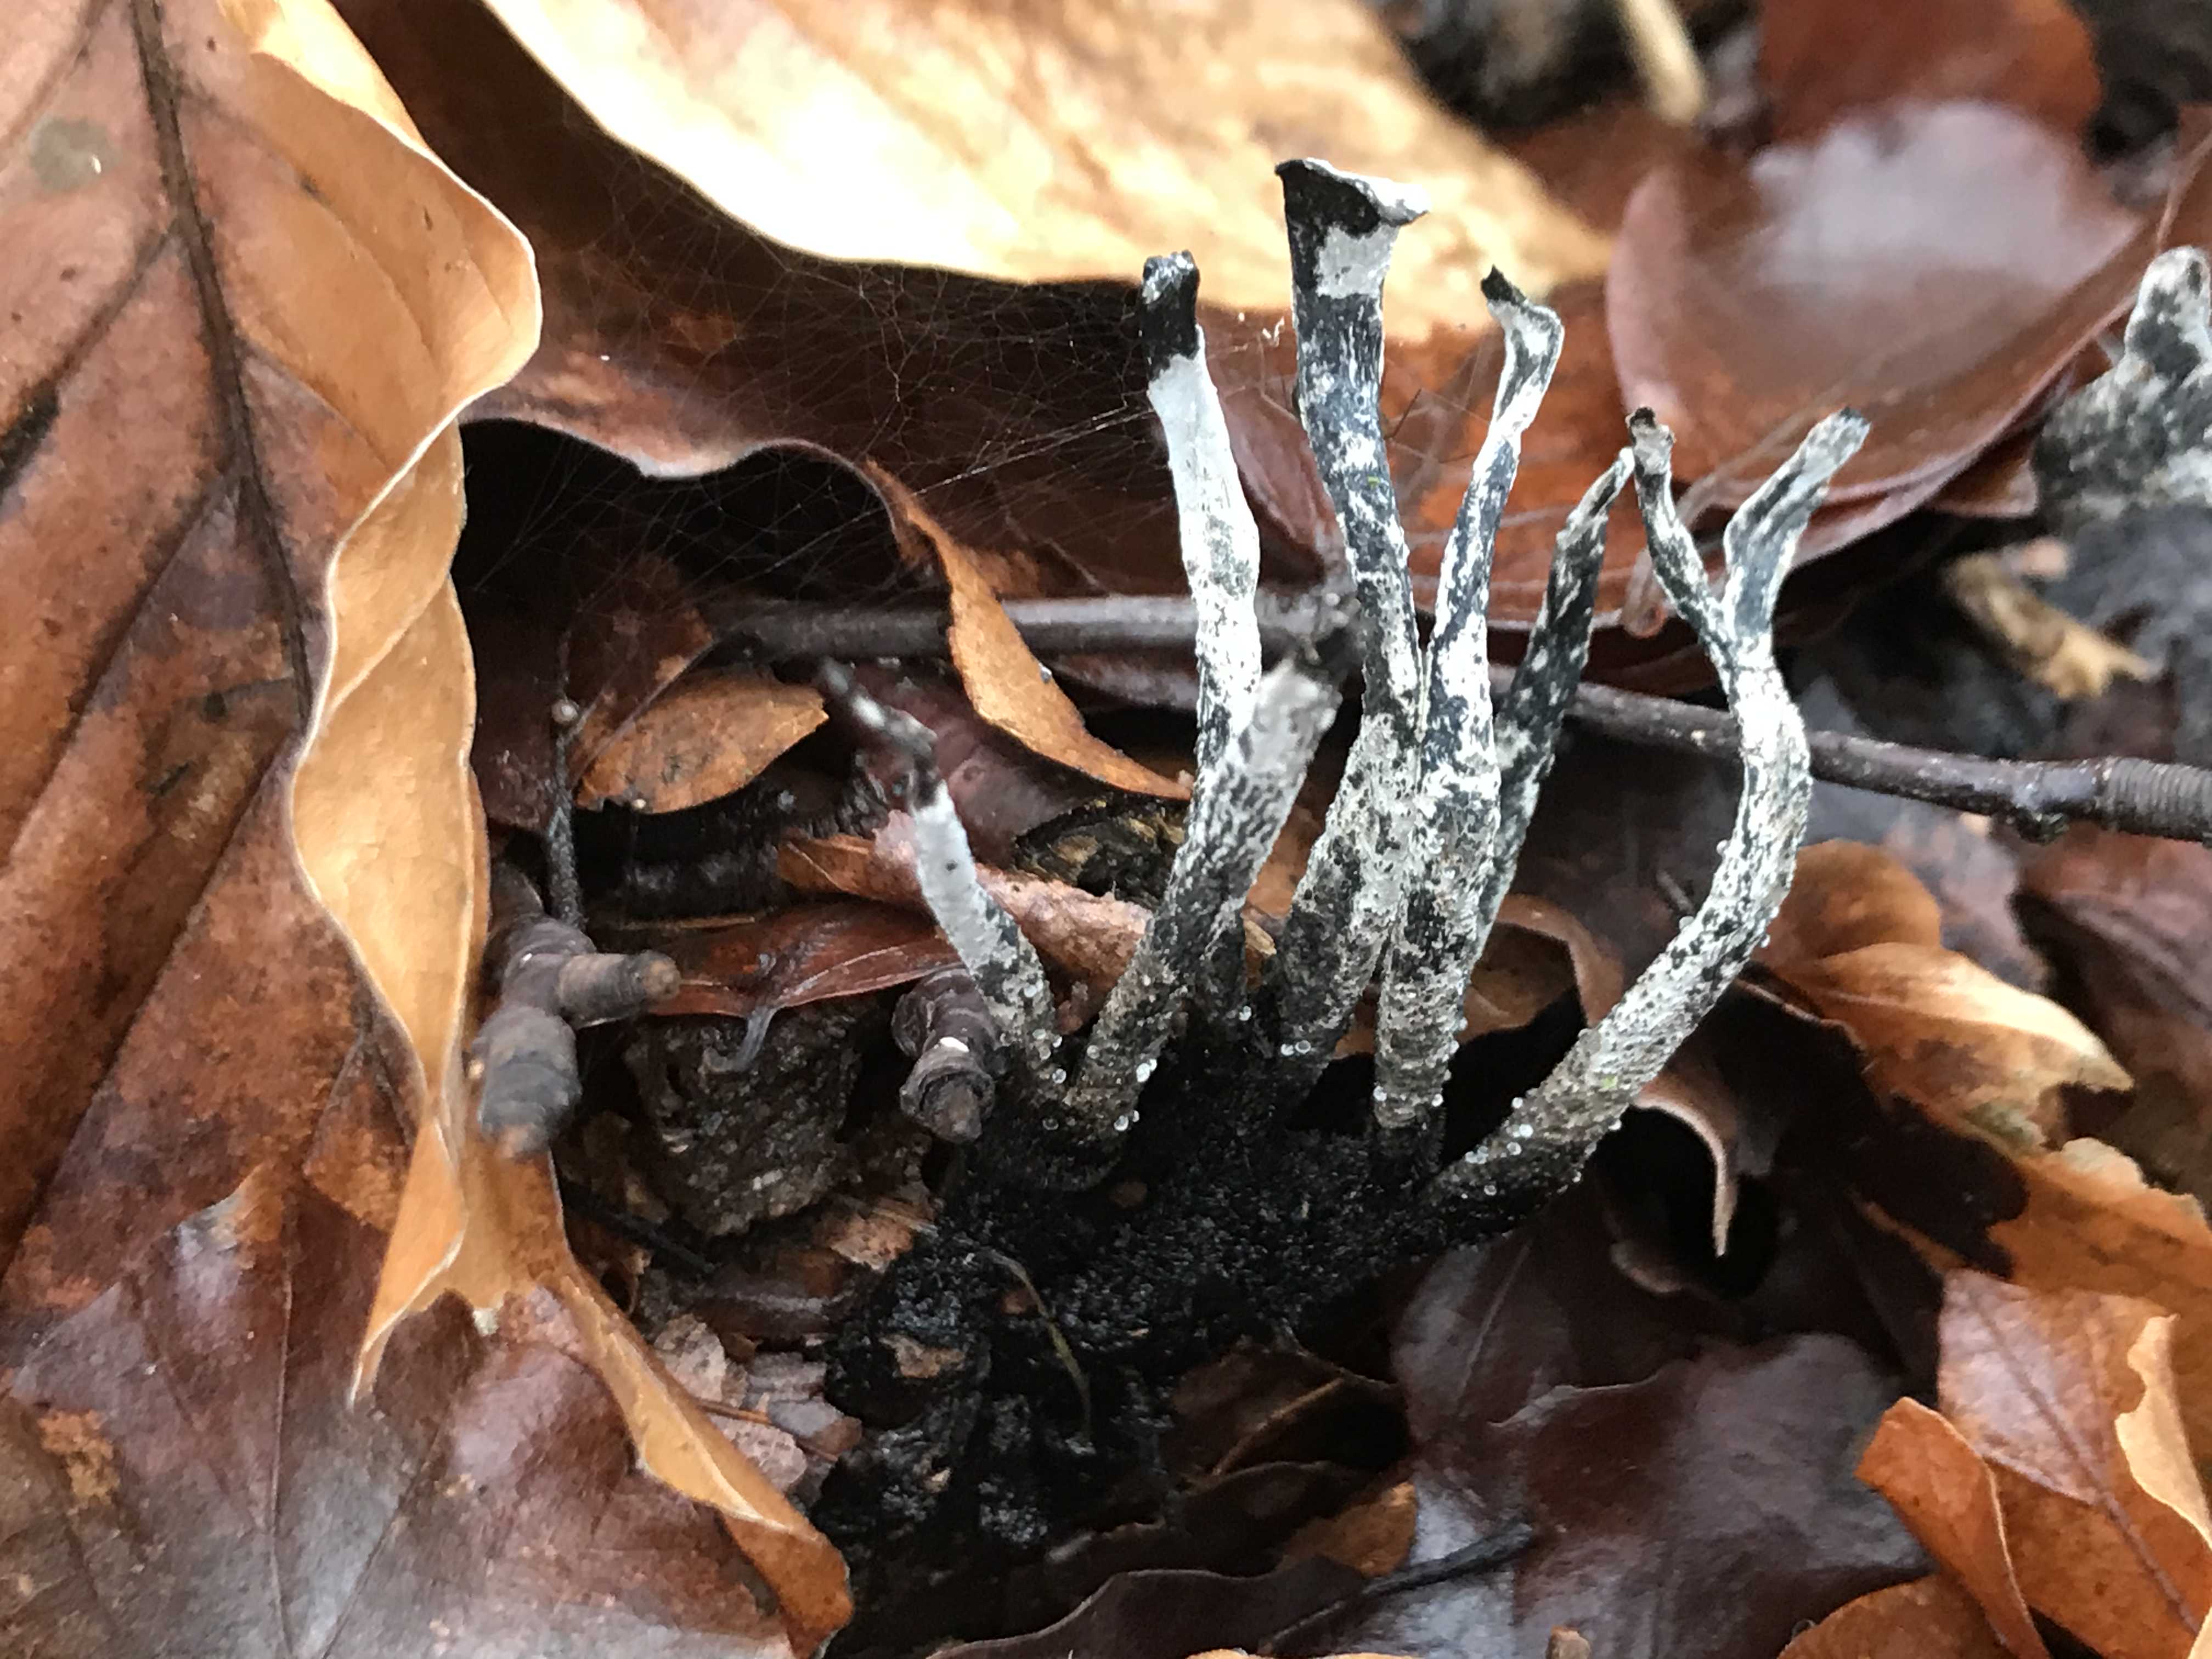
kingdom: Fungi
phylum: Ascomycota
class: Sordariomycetes
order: Xylariales
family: Xylariaceae
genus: Xylaria
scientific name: Xylaria hypoxylon
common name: grenet stødsvamp
